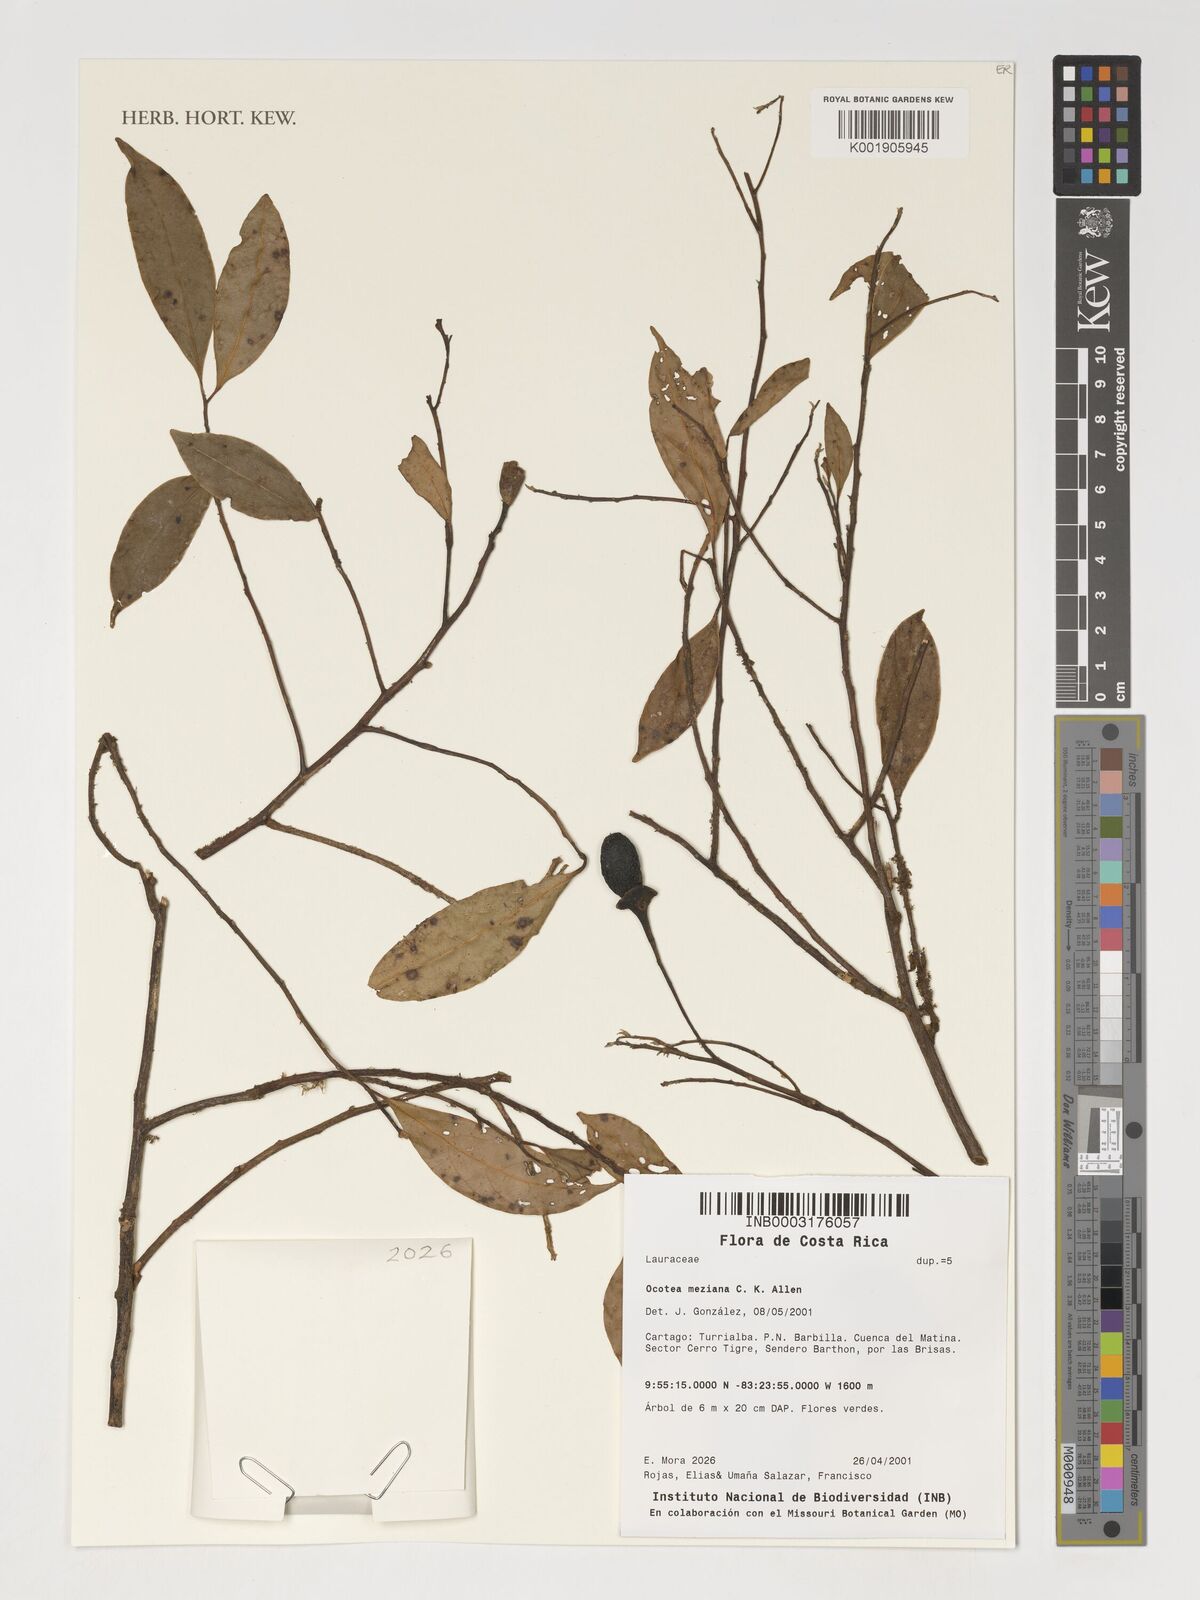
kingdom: Plantae
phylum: Tracheophyta
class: Magnoliopsida
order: Laurales
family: Lauraceae
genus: Ocotea
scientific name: Ocotea meziana
